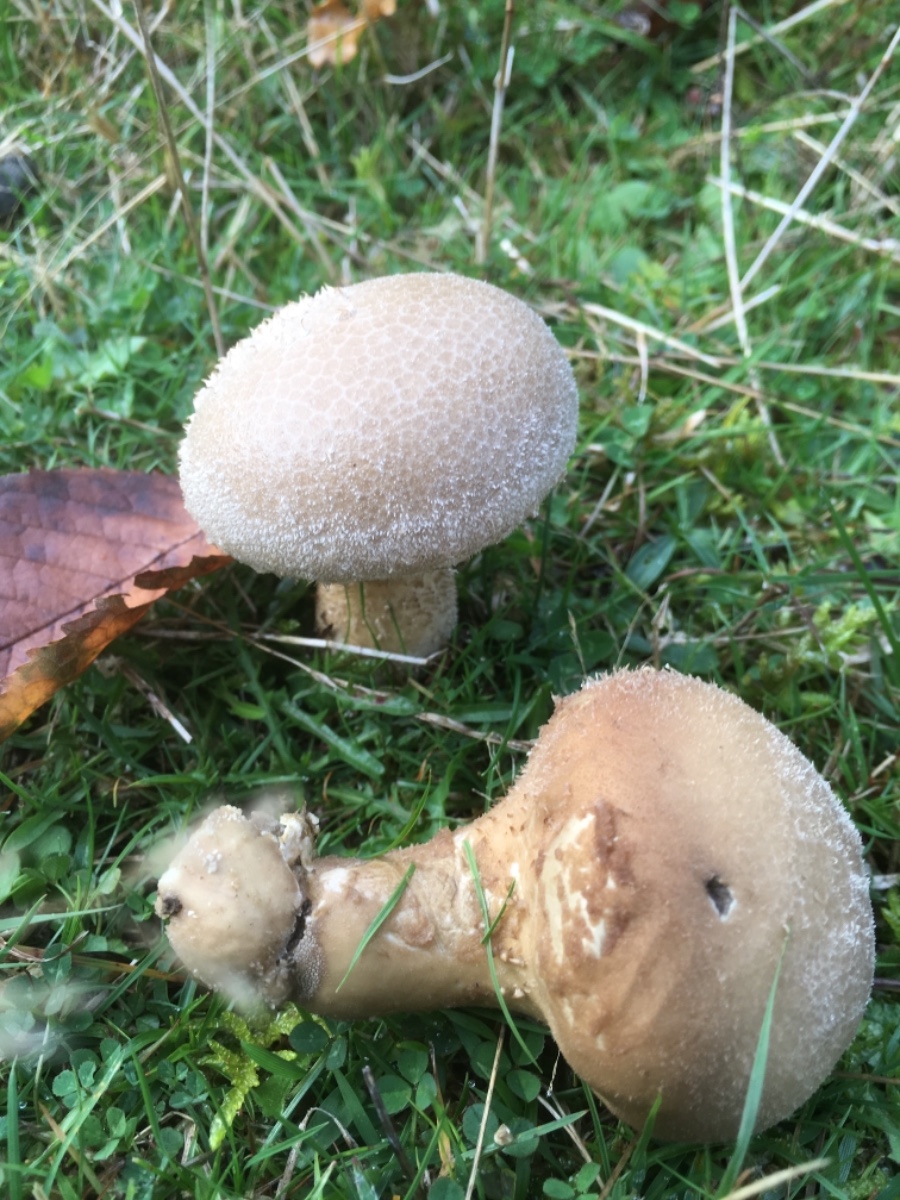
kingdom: Fungi
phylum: Basidiomycota
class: Agaricomycetes
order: Agaricales
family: Lycoperdaceae
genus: Lycoperdon
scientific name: Lycoperdon excipuliforme
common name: højstokket støvbold
